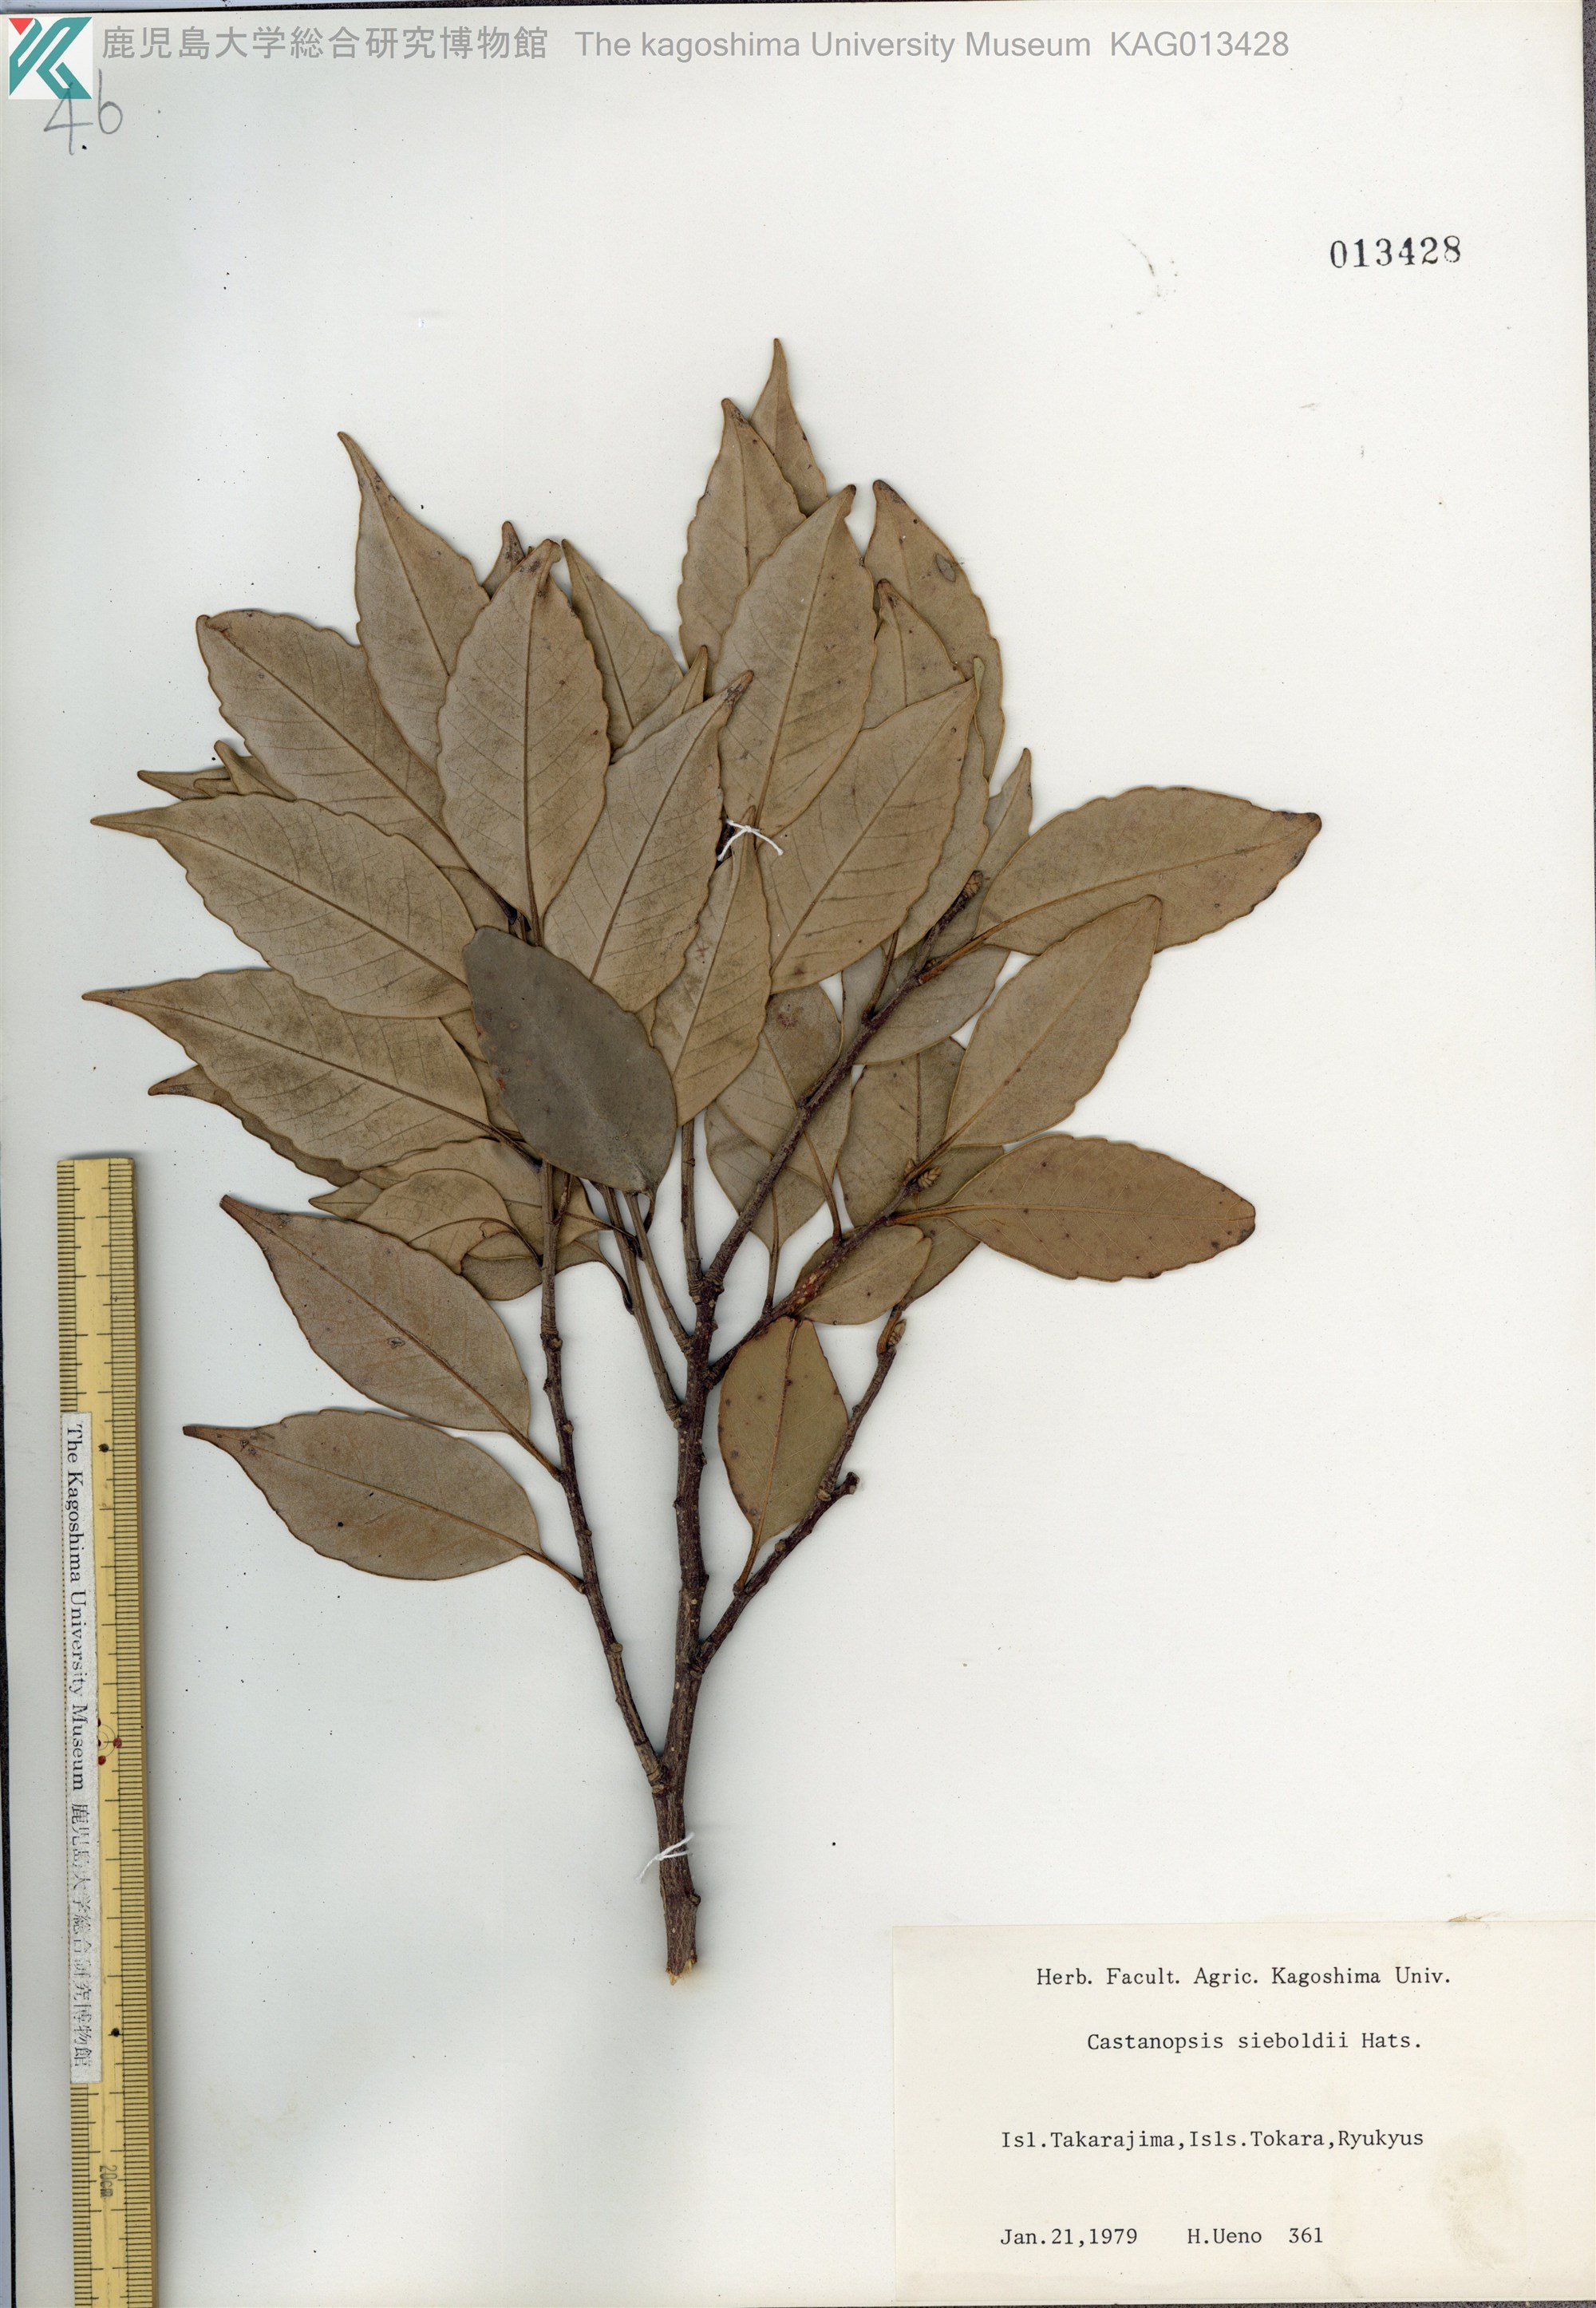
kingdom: Plantae
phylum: Tracheophyta
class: Magnoliopsida
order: Fagales
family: Fagaceae
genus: Castanopsis
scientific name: Castanopsis sieboldii
